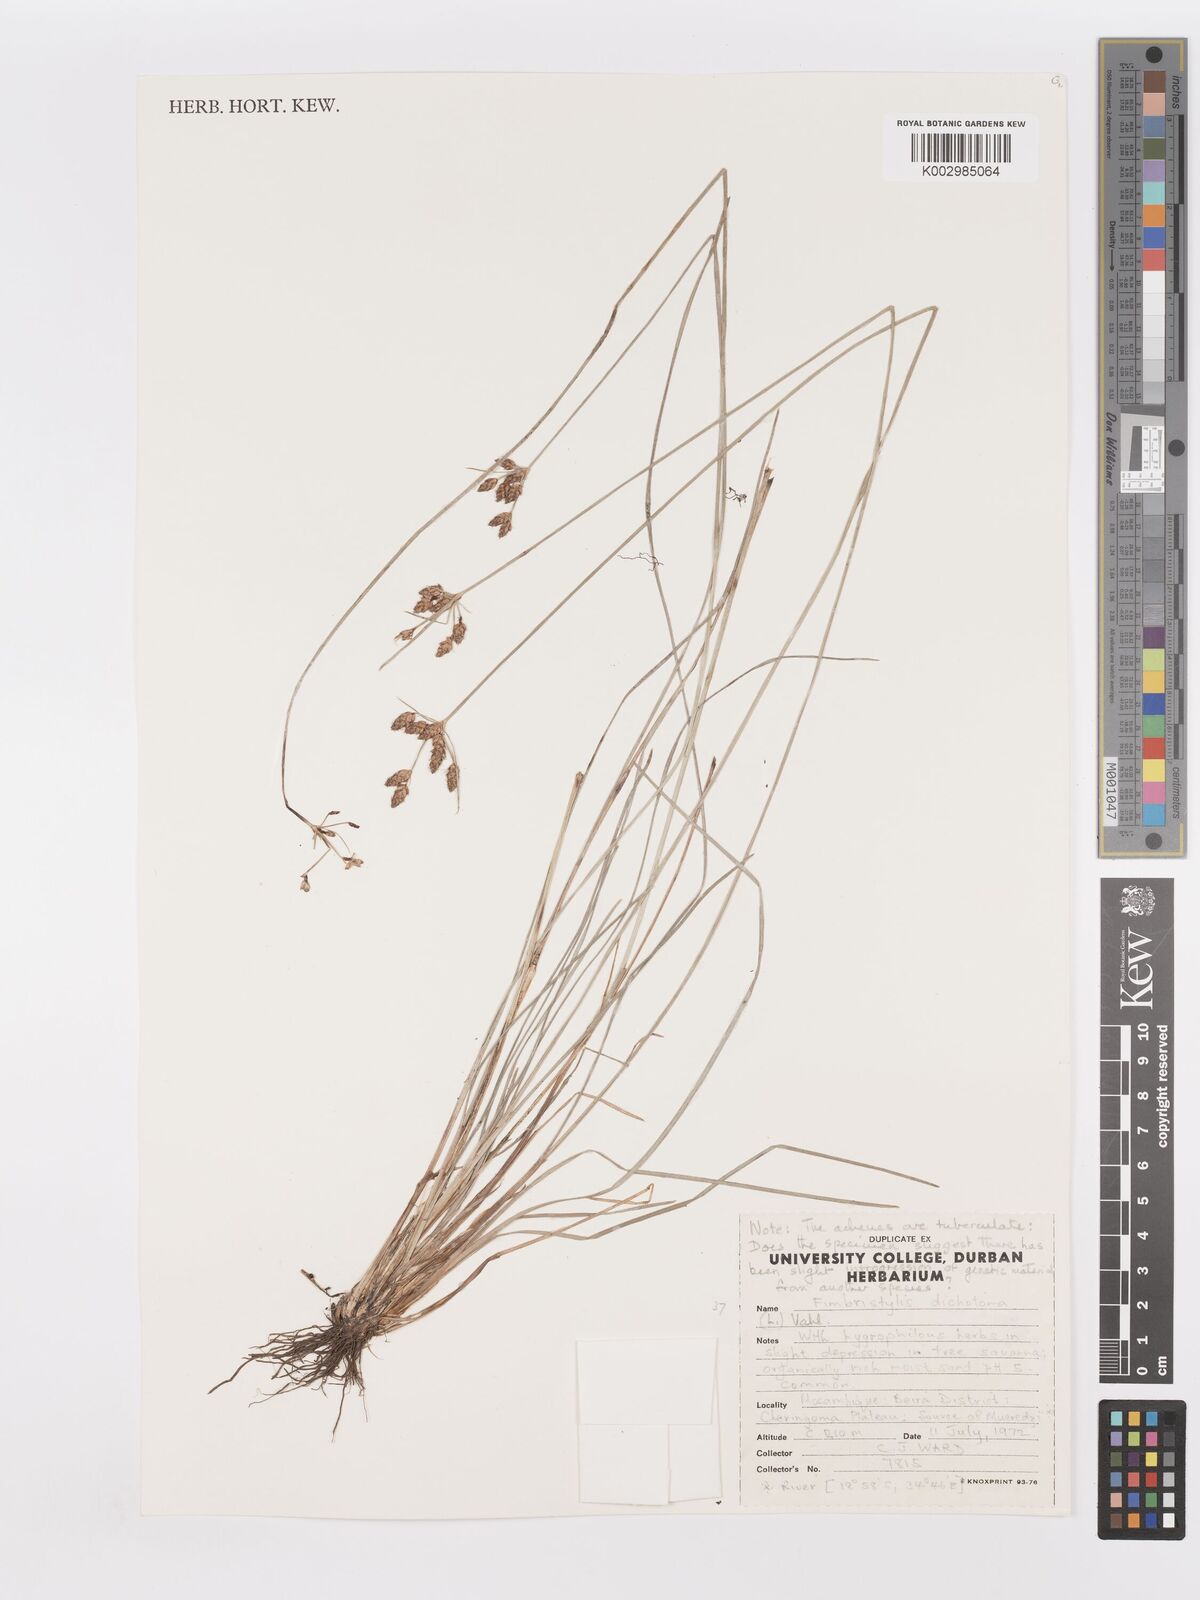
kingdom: Plantae
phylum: Tracheophyta
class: Liliopsida
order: Poales
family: Cyperaceae
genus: Fimbristylis
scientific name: Fimbristylis dichotoma
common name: Forked fimbry
